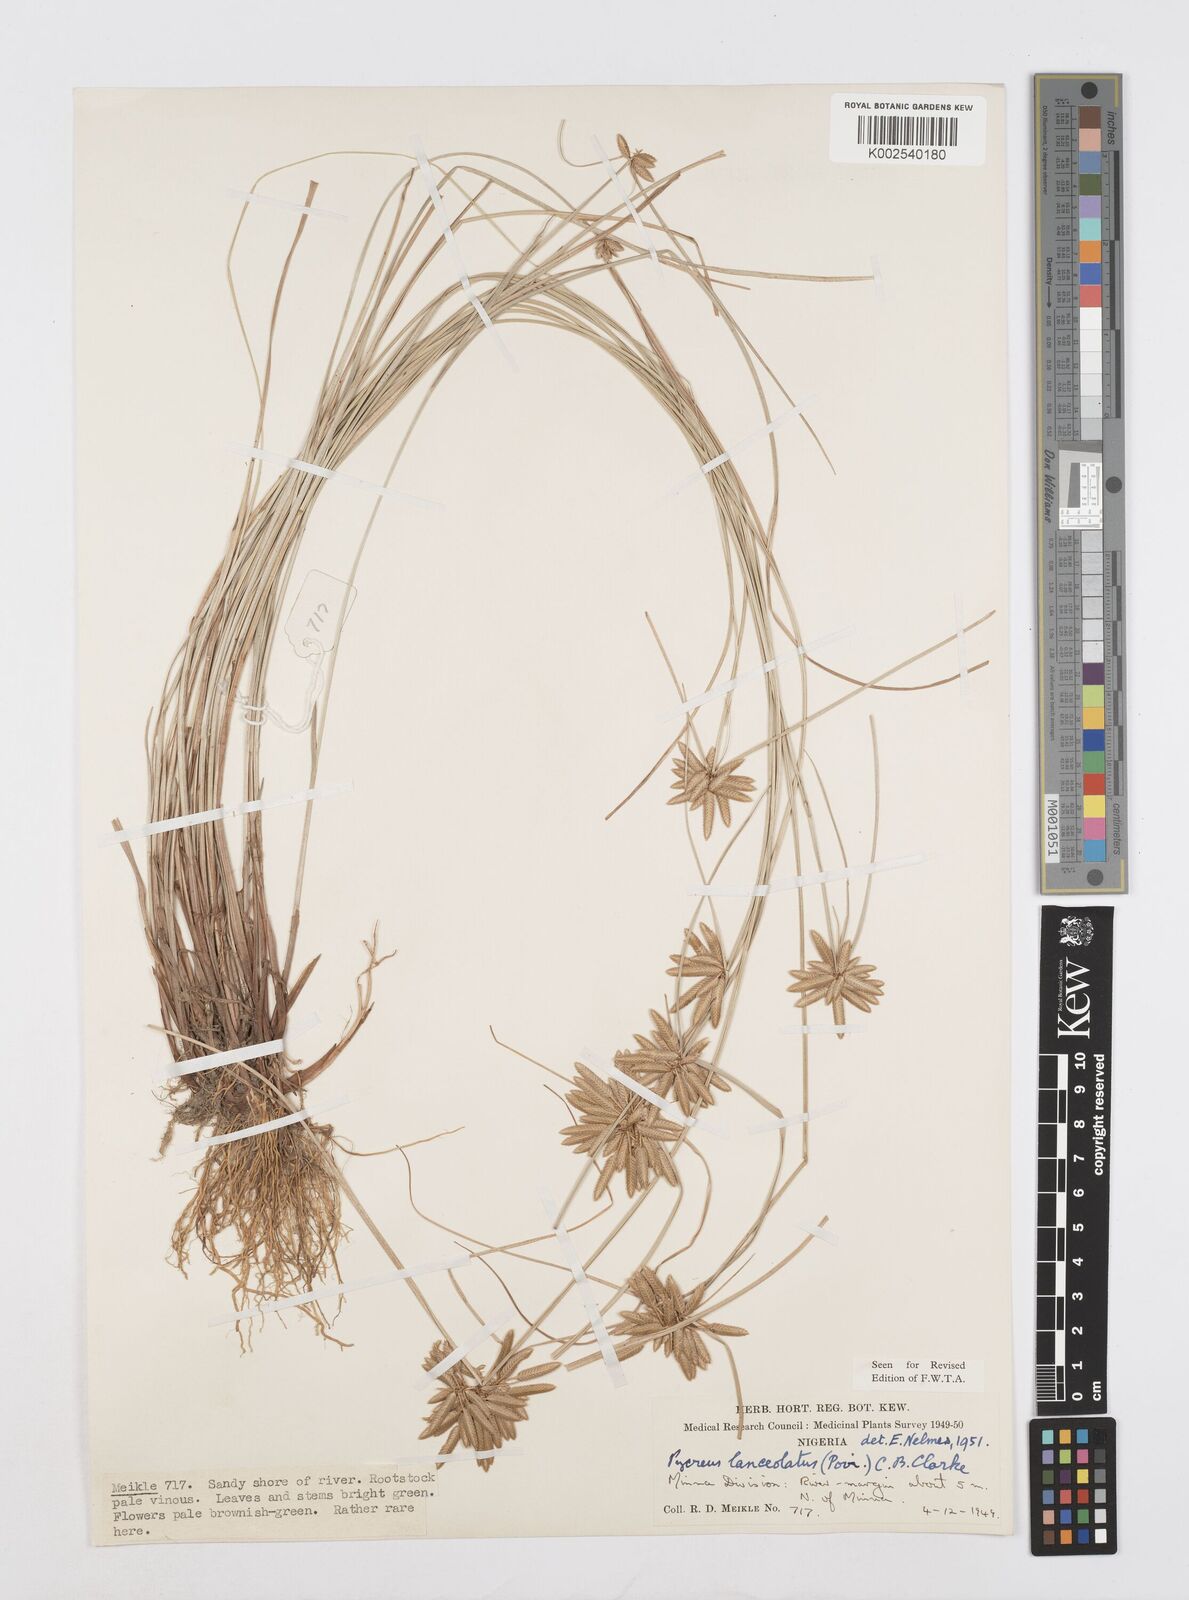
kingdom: Plantae
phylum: Tracheophyta
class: Liliopsida
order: Poales
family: Cyperaceae
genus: Cyperus
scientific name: Cyperus
